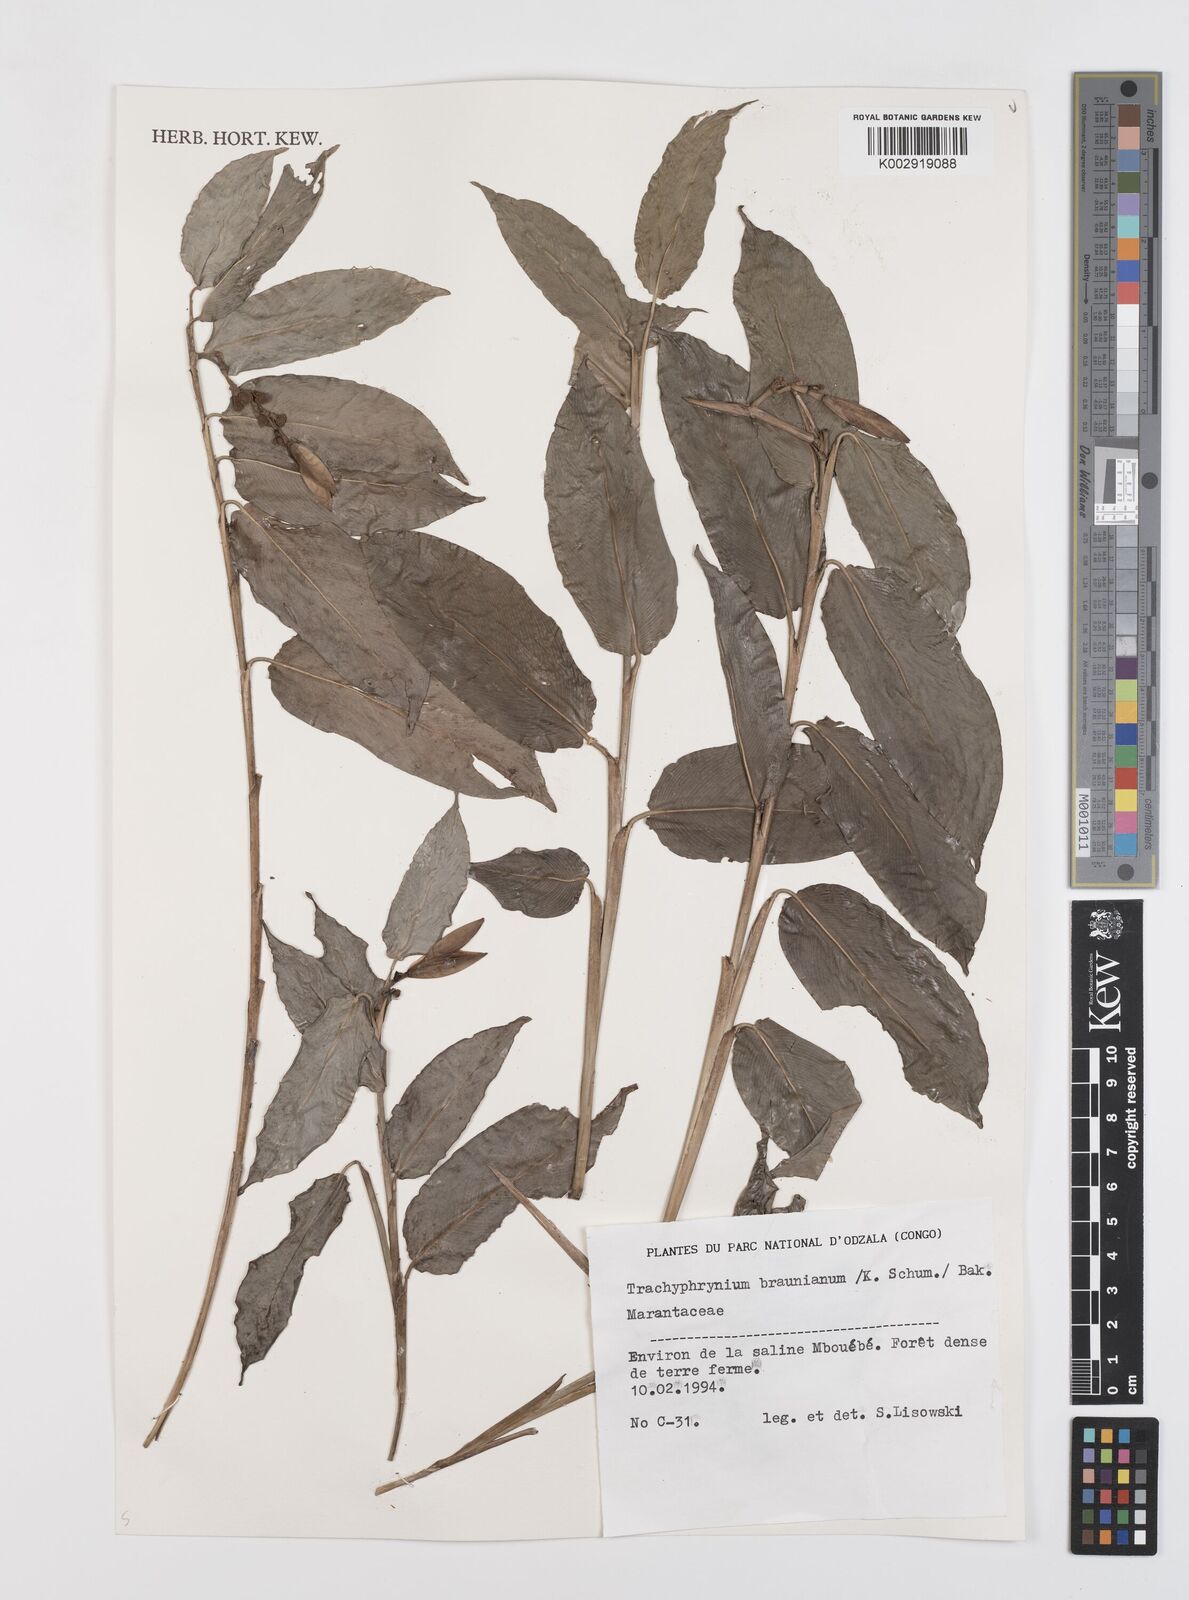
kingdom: Plantae
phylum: Tracheophyta
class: Liliopsida
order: Zingiberales
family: Marantaceae
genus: Trachyphrynium
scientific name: Trachyphrynium braunianum
